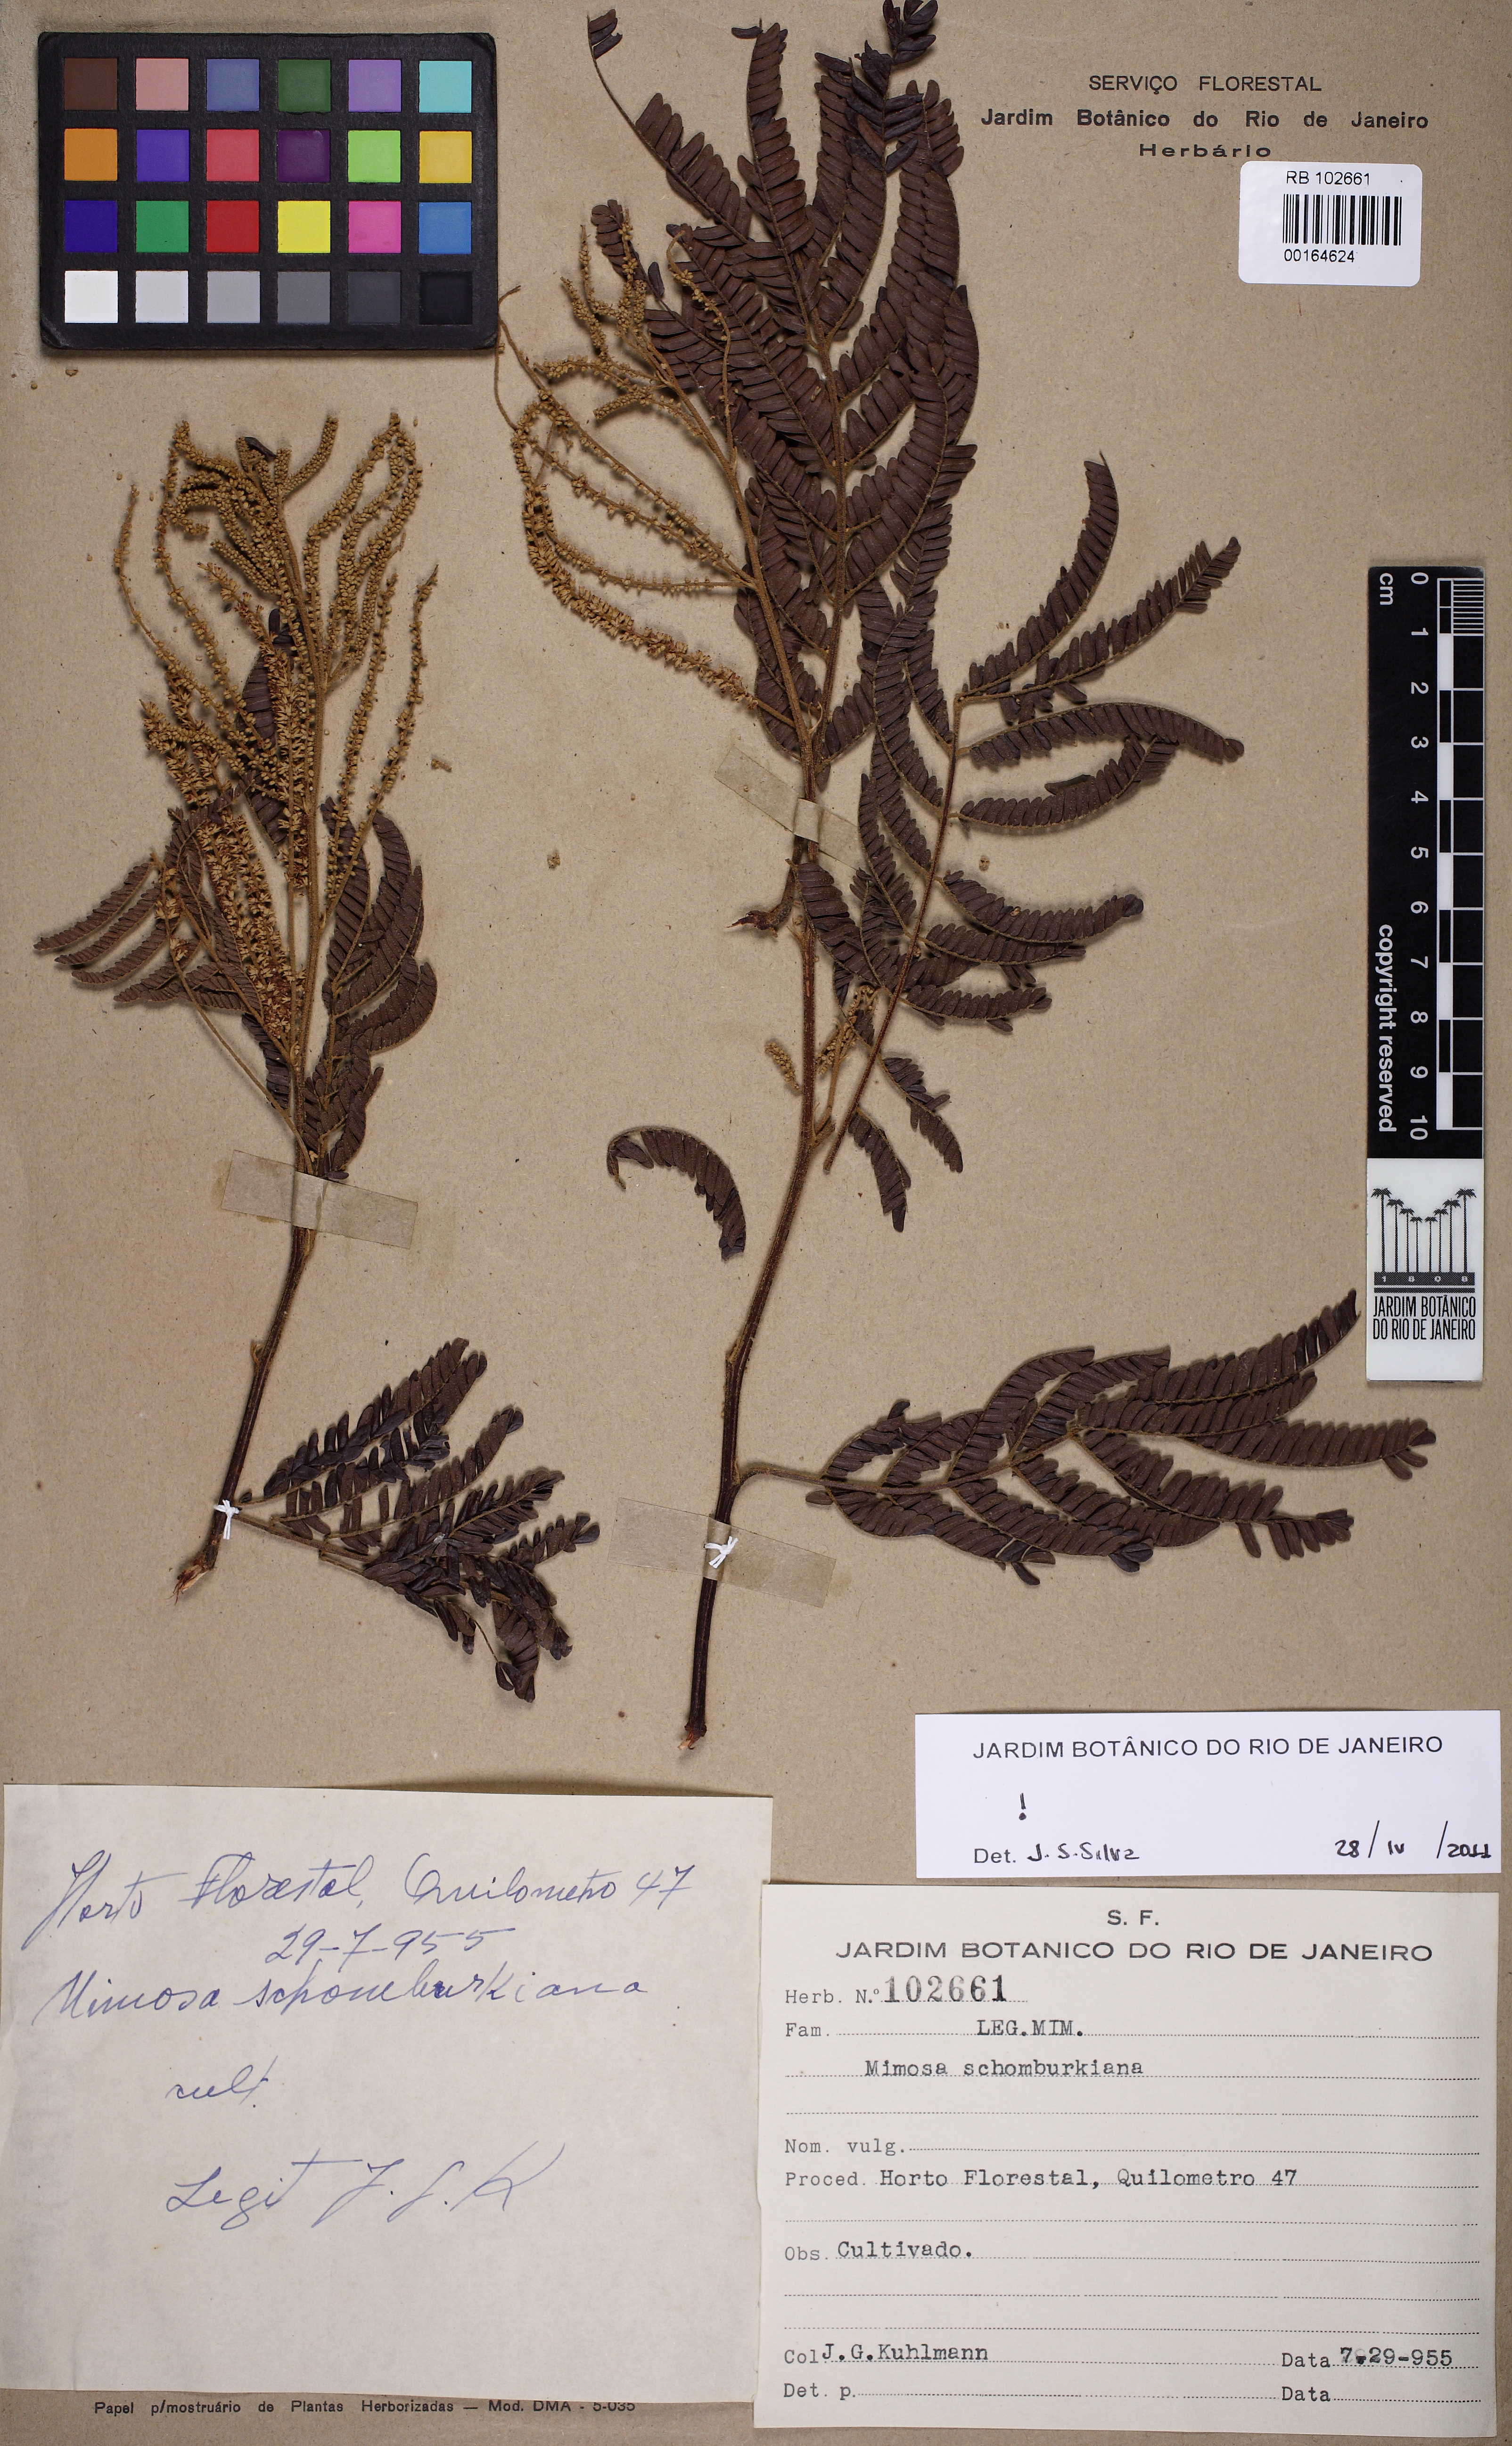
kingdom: Plantae
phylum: Tracheophyta
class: Magnoliopsida
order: Fabales
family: Fabaceae
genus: Mimosa
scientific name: Mimosa schomburgkii
